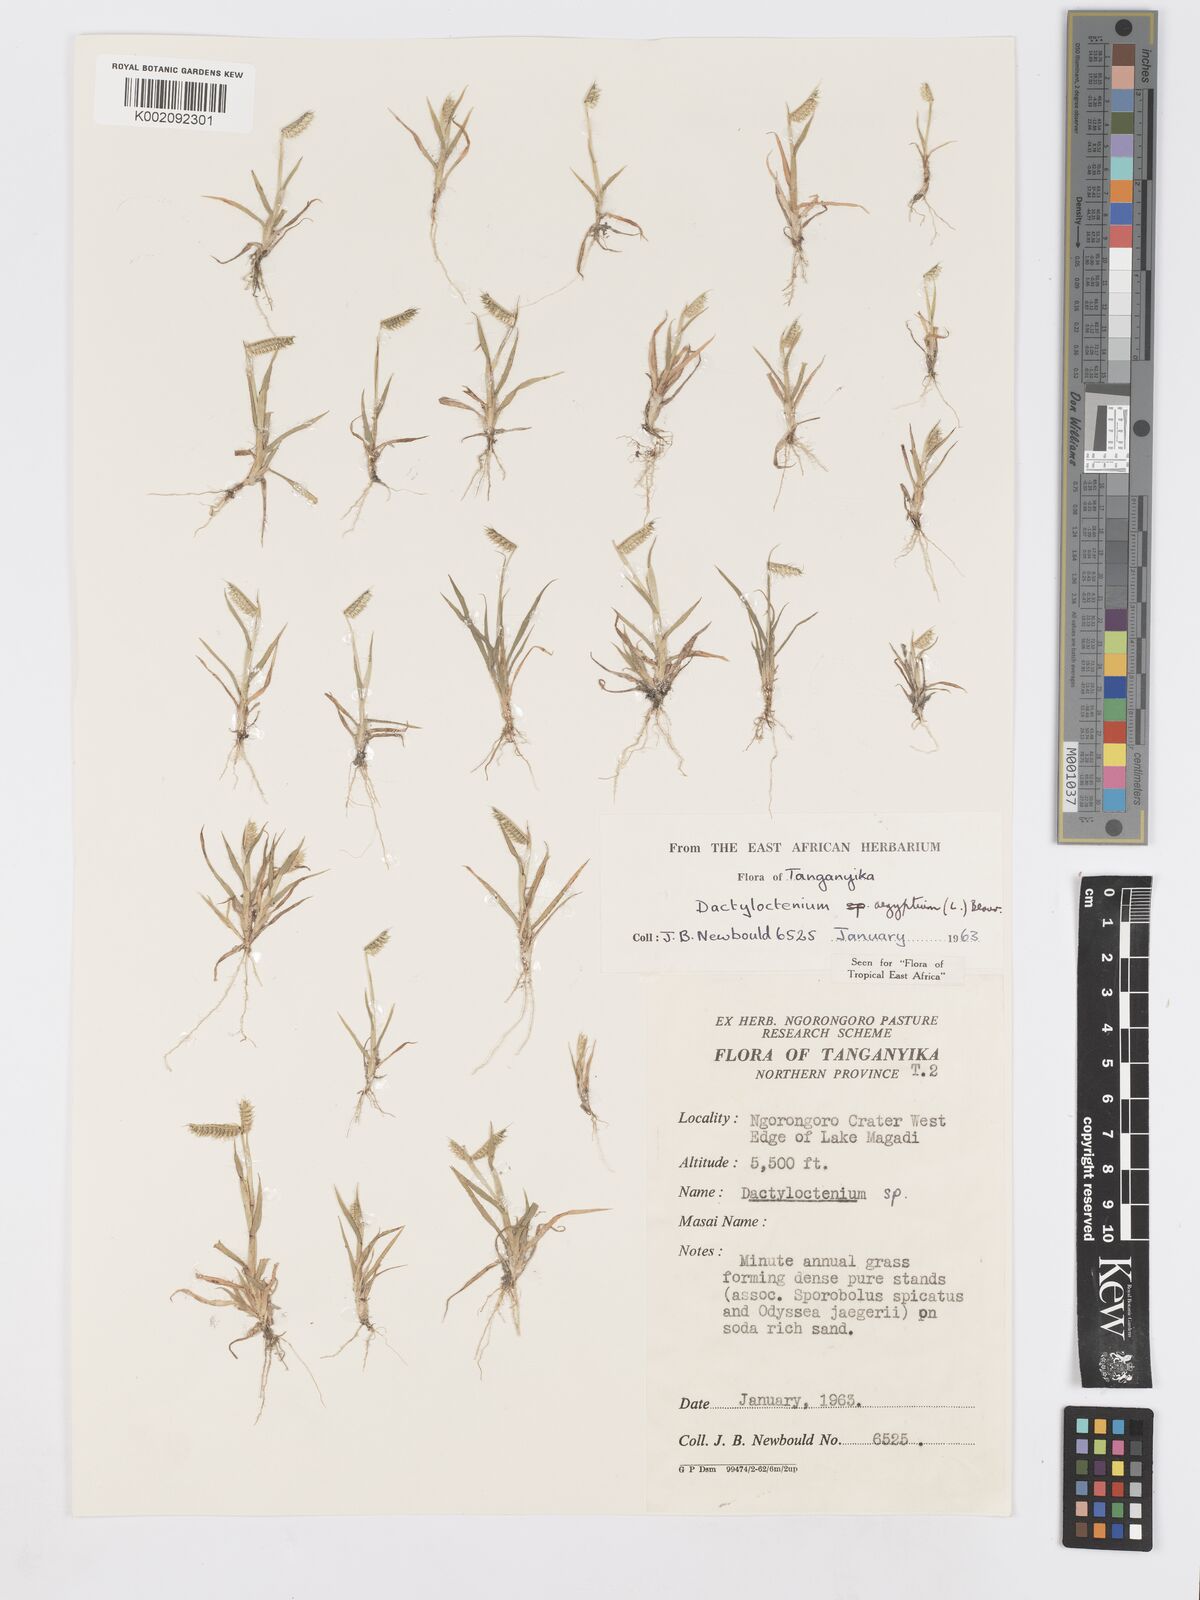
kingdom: Plantae
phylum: Tracheophyta
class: Liliopsida
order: Poales
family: Poaceae
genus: Dactyloctenium
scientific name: Dactyloctenium aegyptium
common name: Egyptian grass
